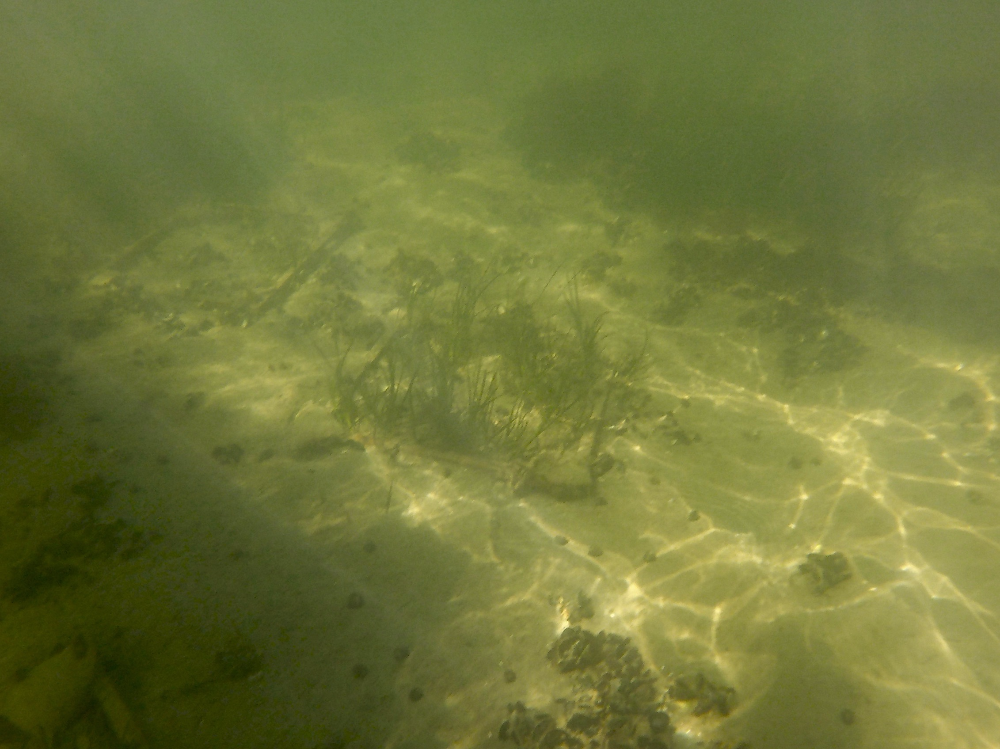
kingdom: Plantae
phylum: Tracheophyta
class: Liliopsida
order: Alismatales
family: Zosteraceae
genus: Zostera
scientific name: Zostera marina
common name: Eelgrass
